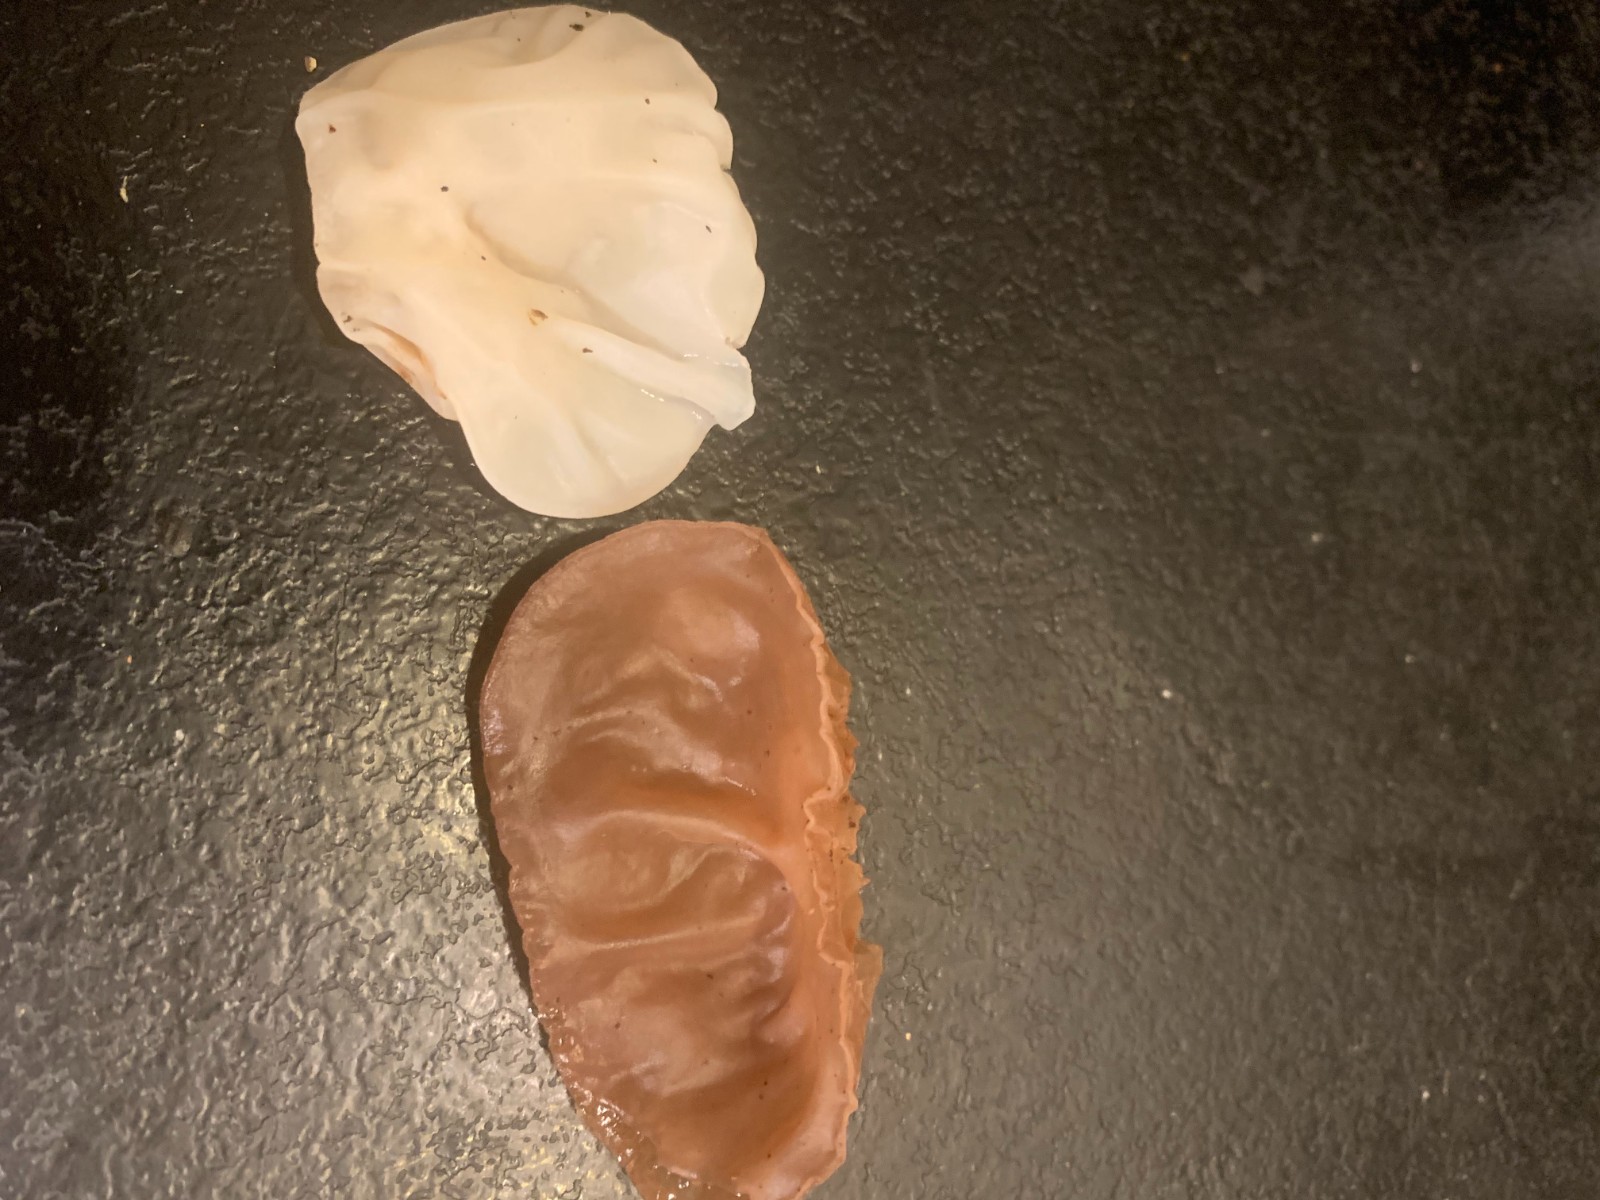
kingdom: Fungi
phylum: Basidiomycota
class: Agaricomycetes
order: Auriculariales
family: Auriculariaceae
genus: Auricularia
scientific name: Auricularia auricula-judae
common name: almindelig judasøre
